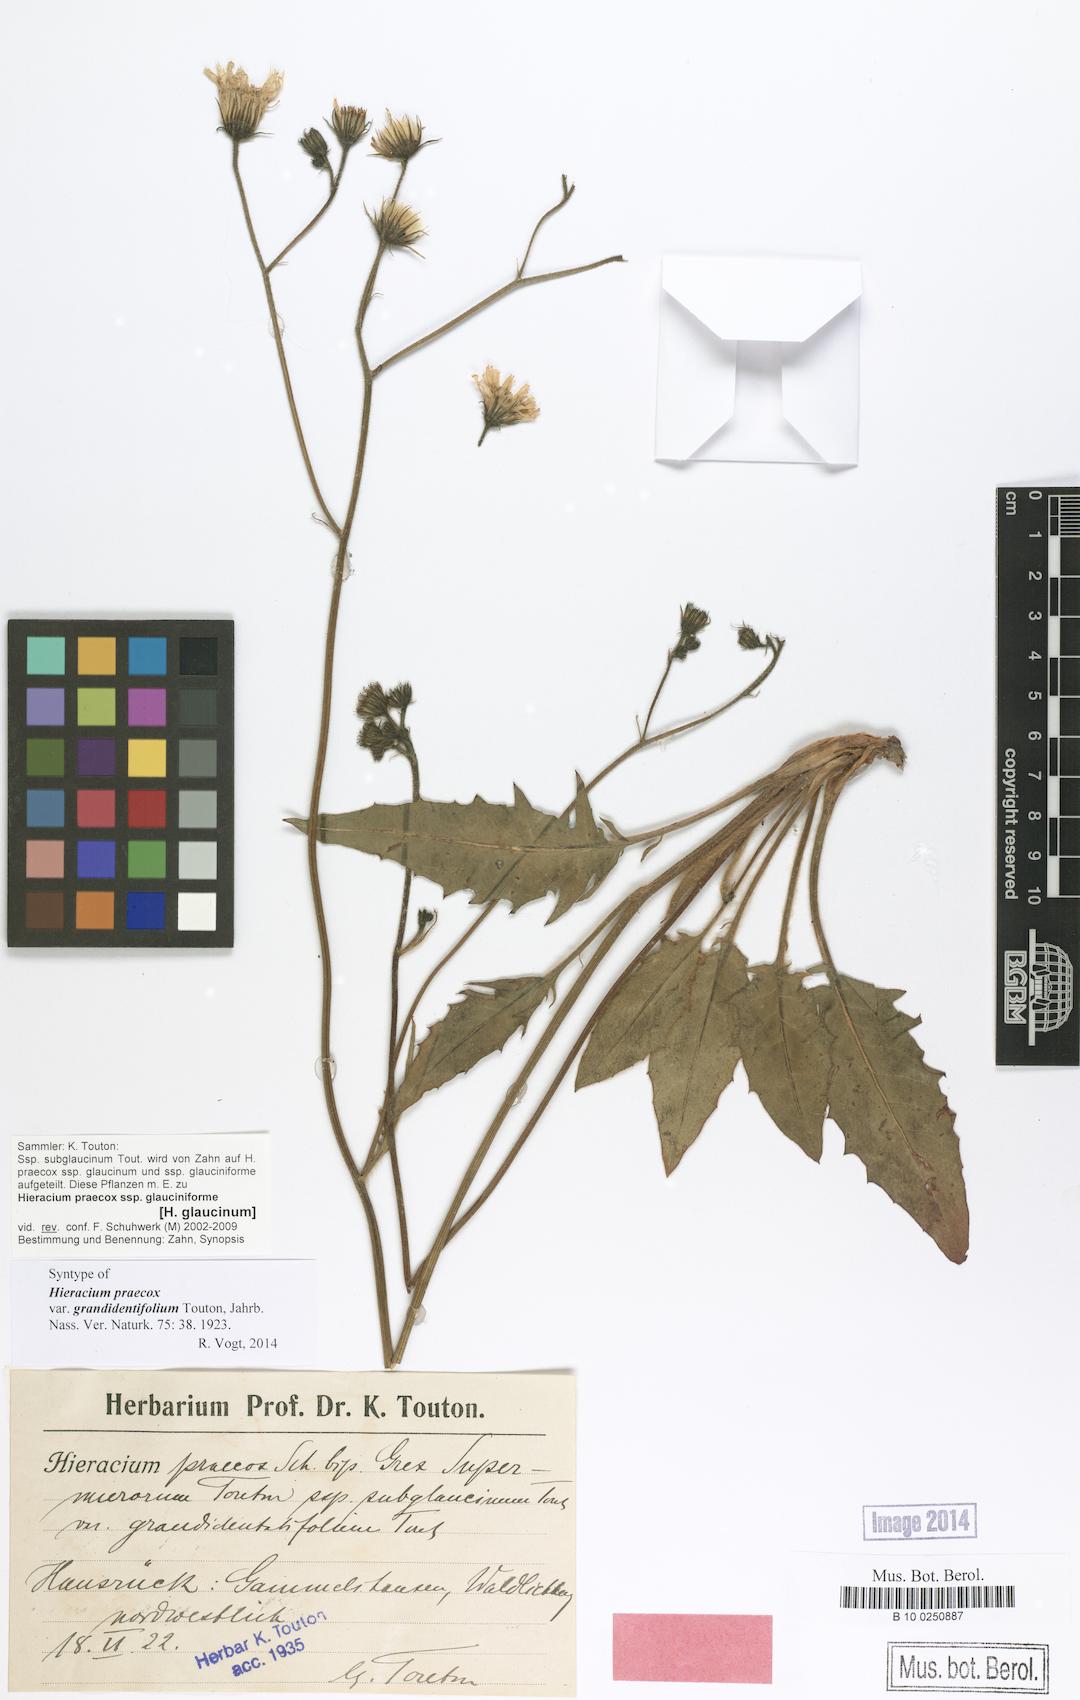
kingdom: Plantae
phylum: Tracheophyta
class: Magnoliopsida
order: Asterales
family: Asteraceae
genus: Hieracium
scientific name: Hieracium praecox
